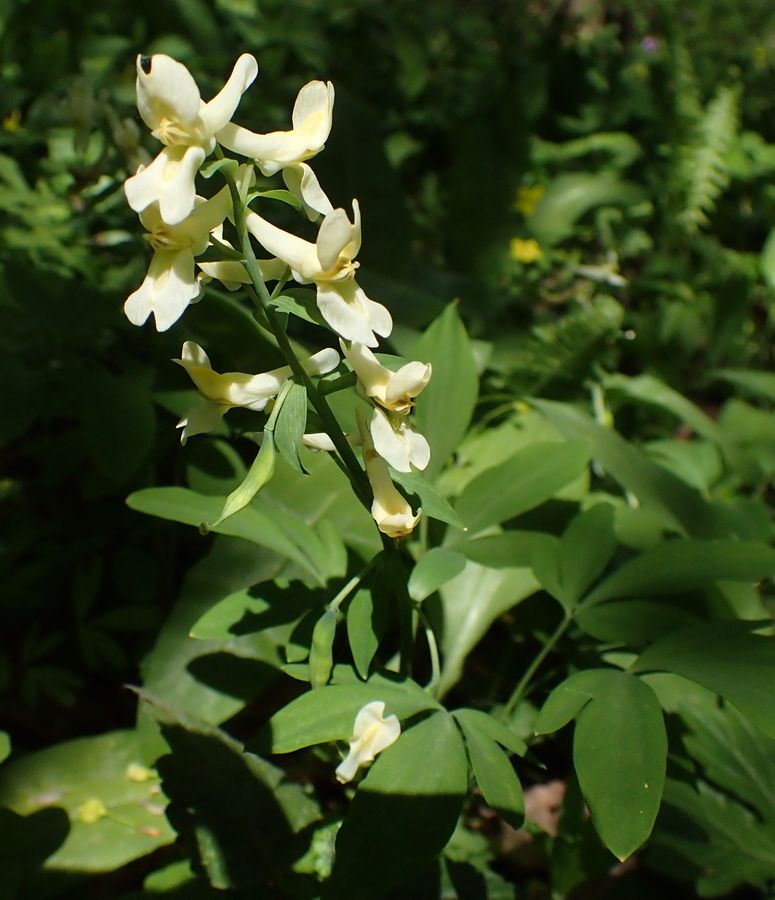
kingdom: Plantae
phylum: Tracheophyta
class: Magnoliopsida
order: Ranunculales
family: Papaveraceae
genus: Corydalis
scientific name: Corydalis cava
